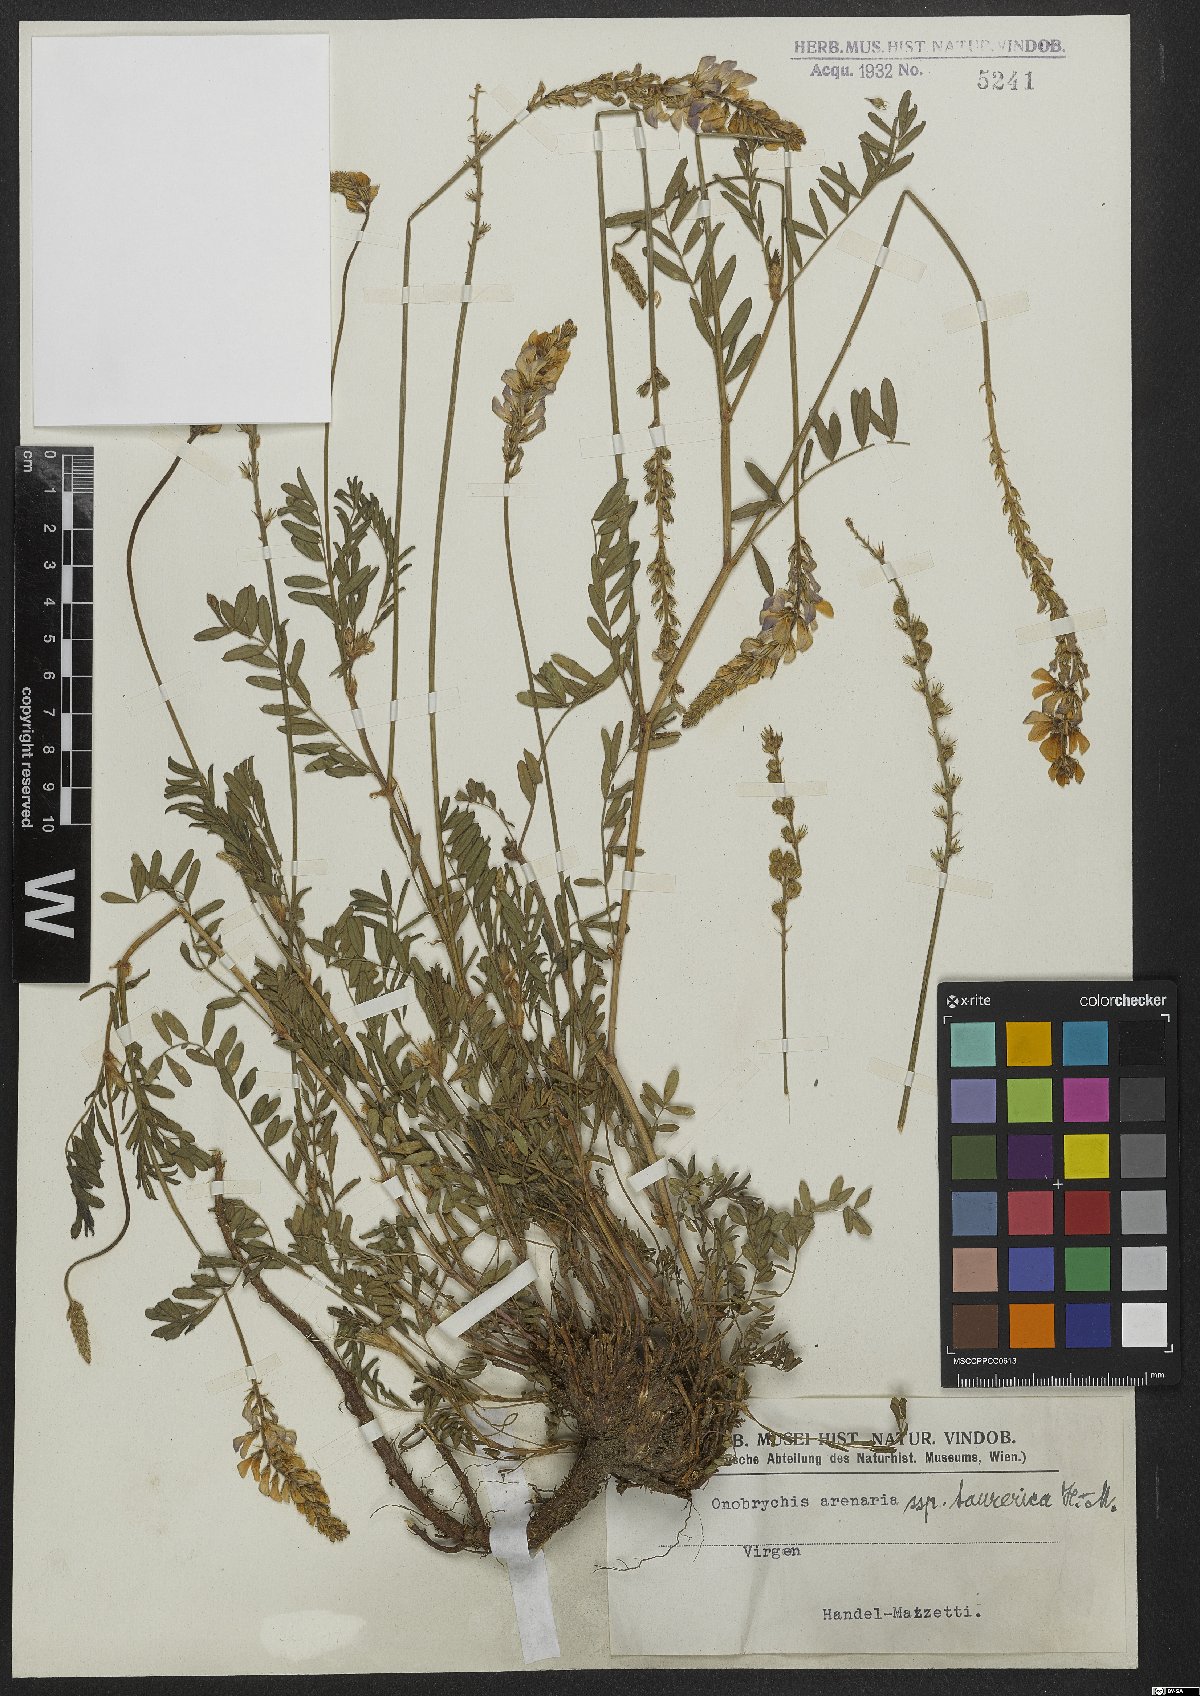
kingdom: Plantae
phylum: Tracheophyta
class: Magnoliopsida
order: Fabales
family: Fabaceae
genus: Onobrychis
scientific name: Onobrychis arenaria
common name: Sand esparcet
